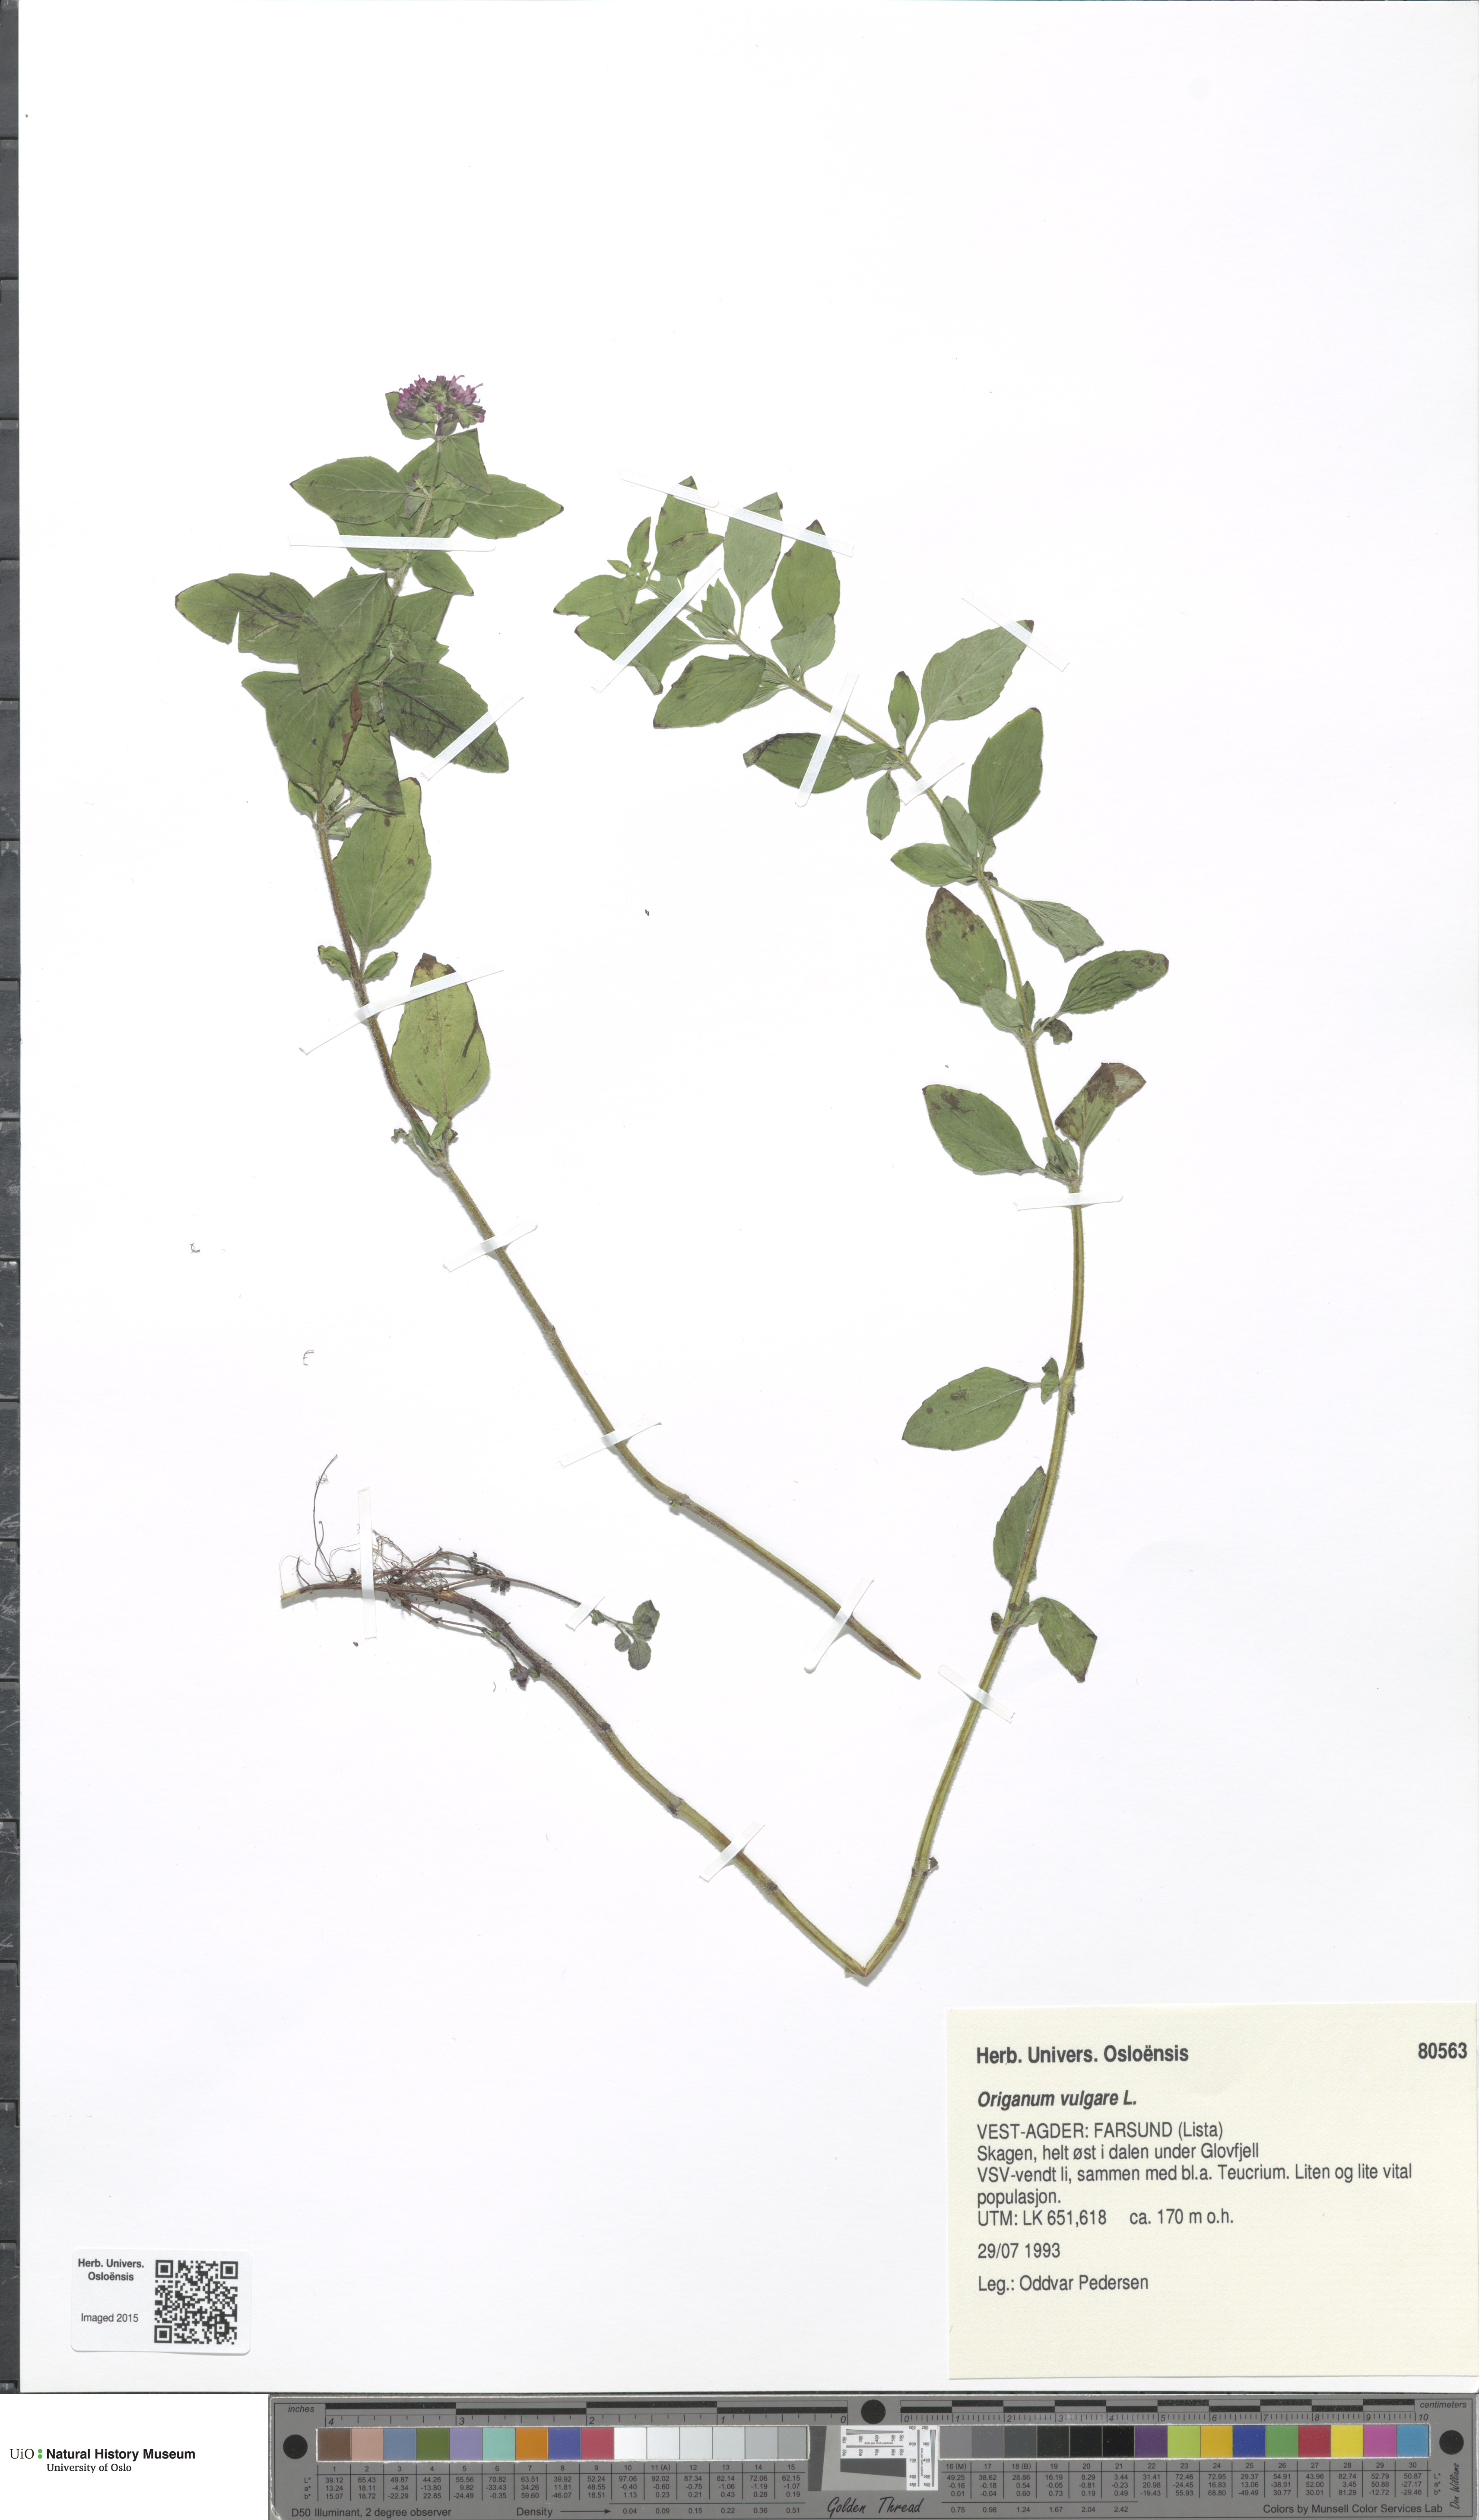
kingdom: Plantae
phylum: Tracheophyta
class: Magnoliopsida
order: Lamiales
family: Lamiaceae
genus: Origanum
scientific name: Origanum vulgare
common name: Wild marjoram
